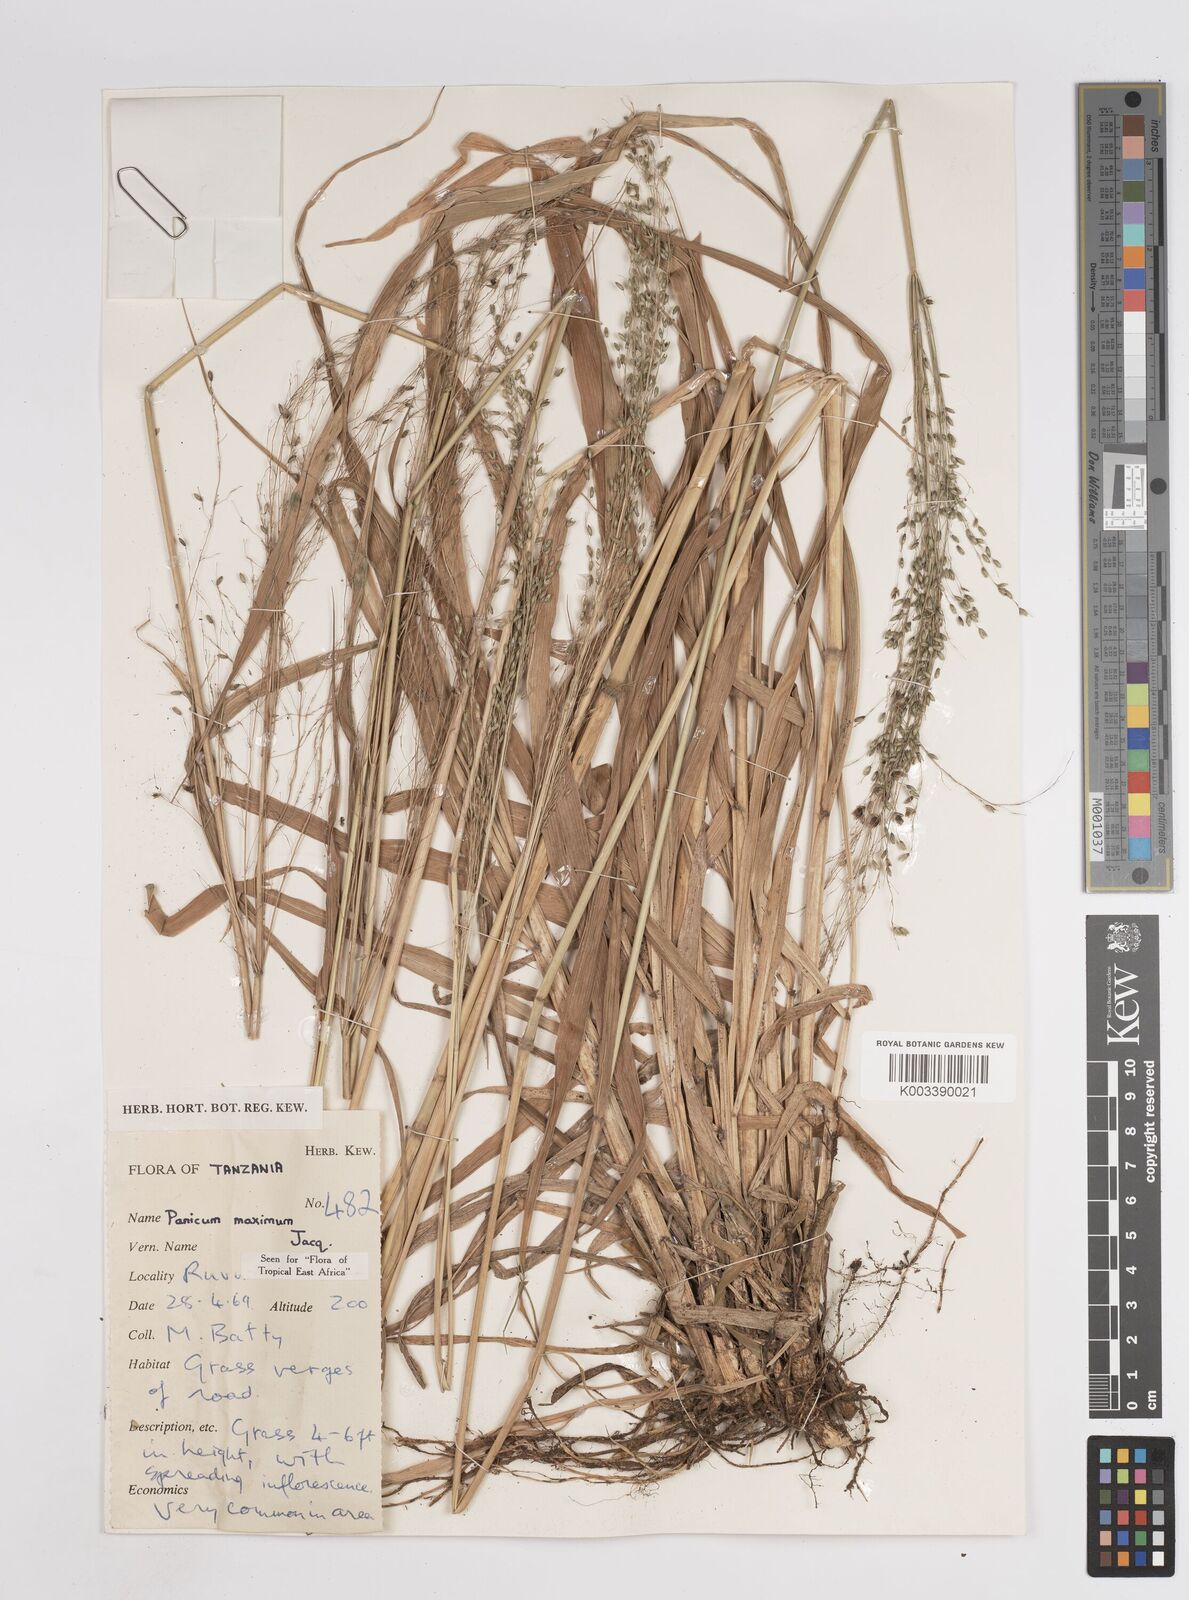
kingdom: Plantae
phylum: Tracheophyta
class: Liliopsida
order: Poales
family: Poaceae
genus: Megathyrsus
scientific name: Megathyrsus maximus
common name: Guineagrass
